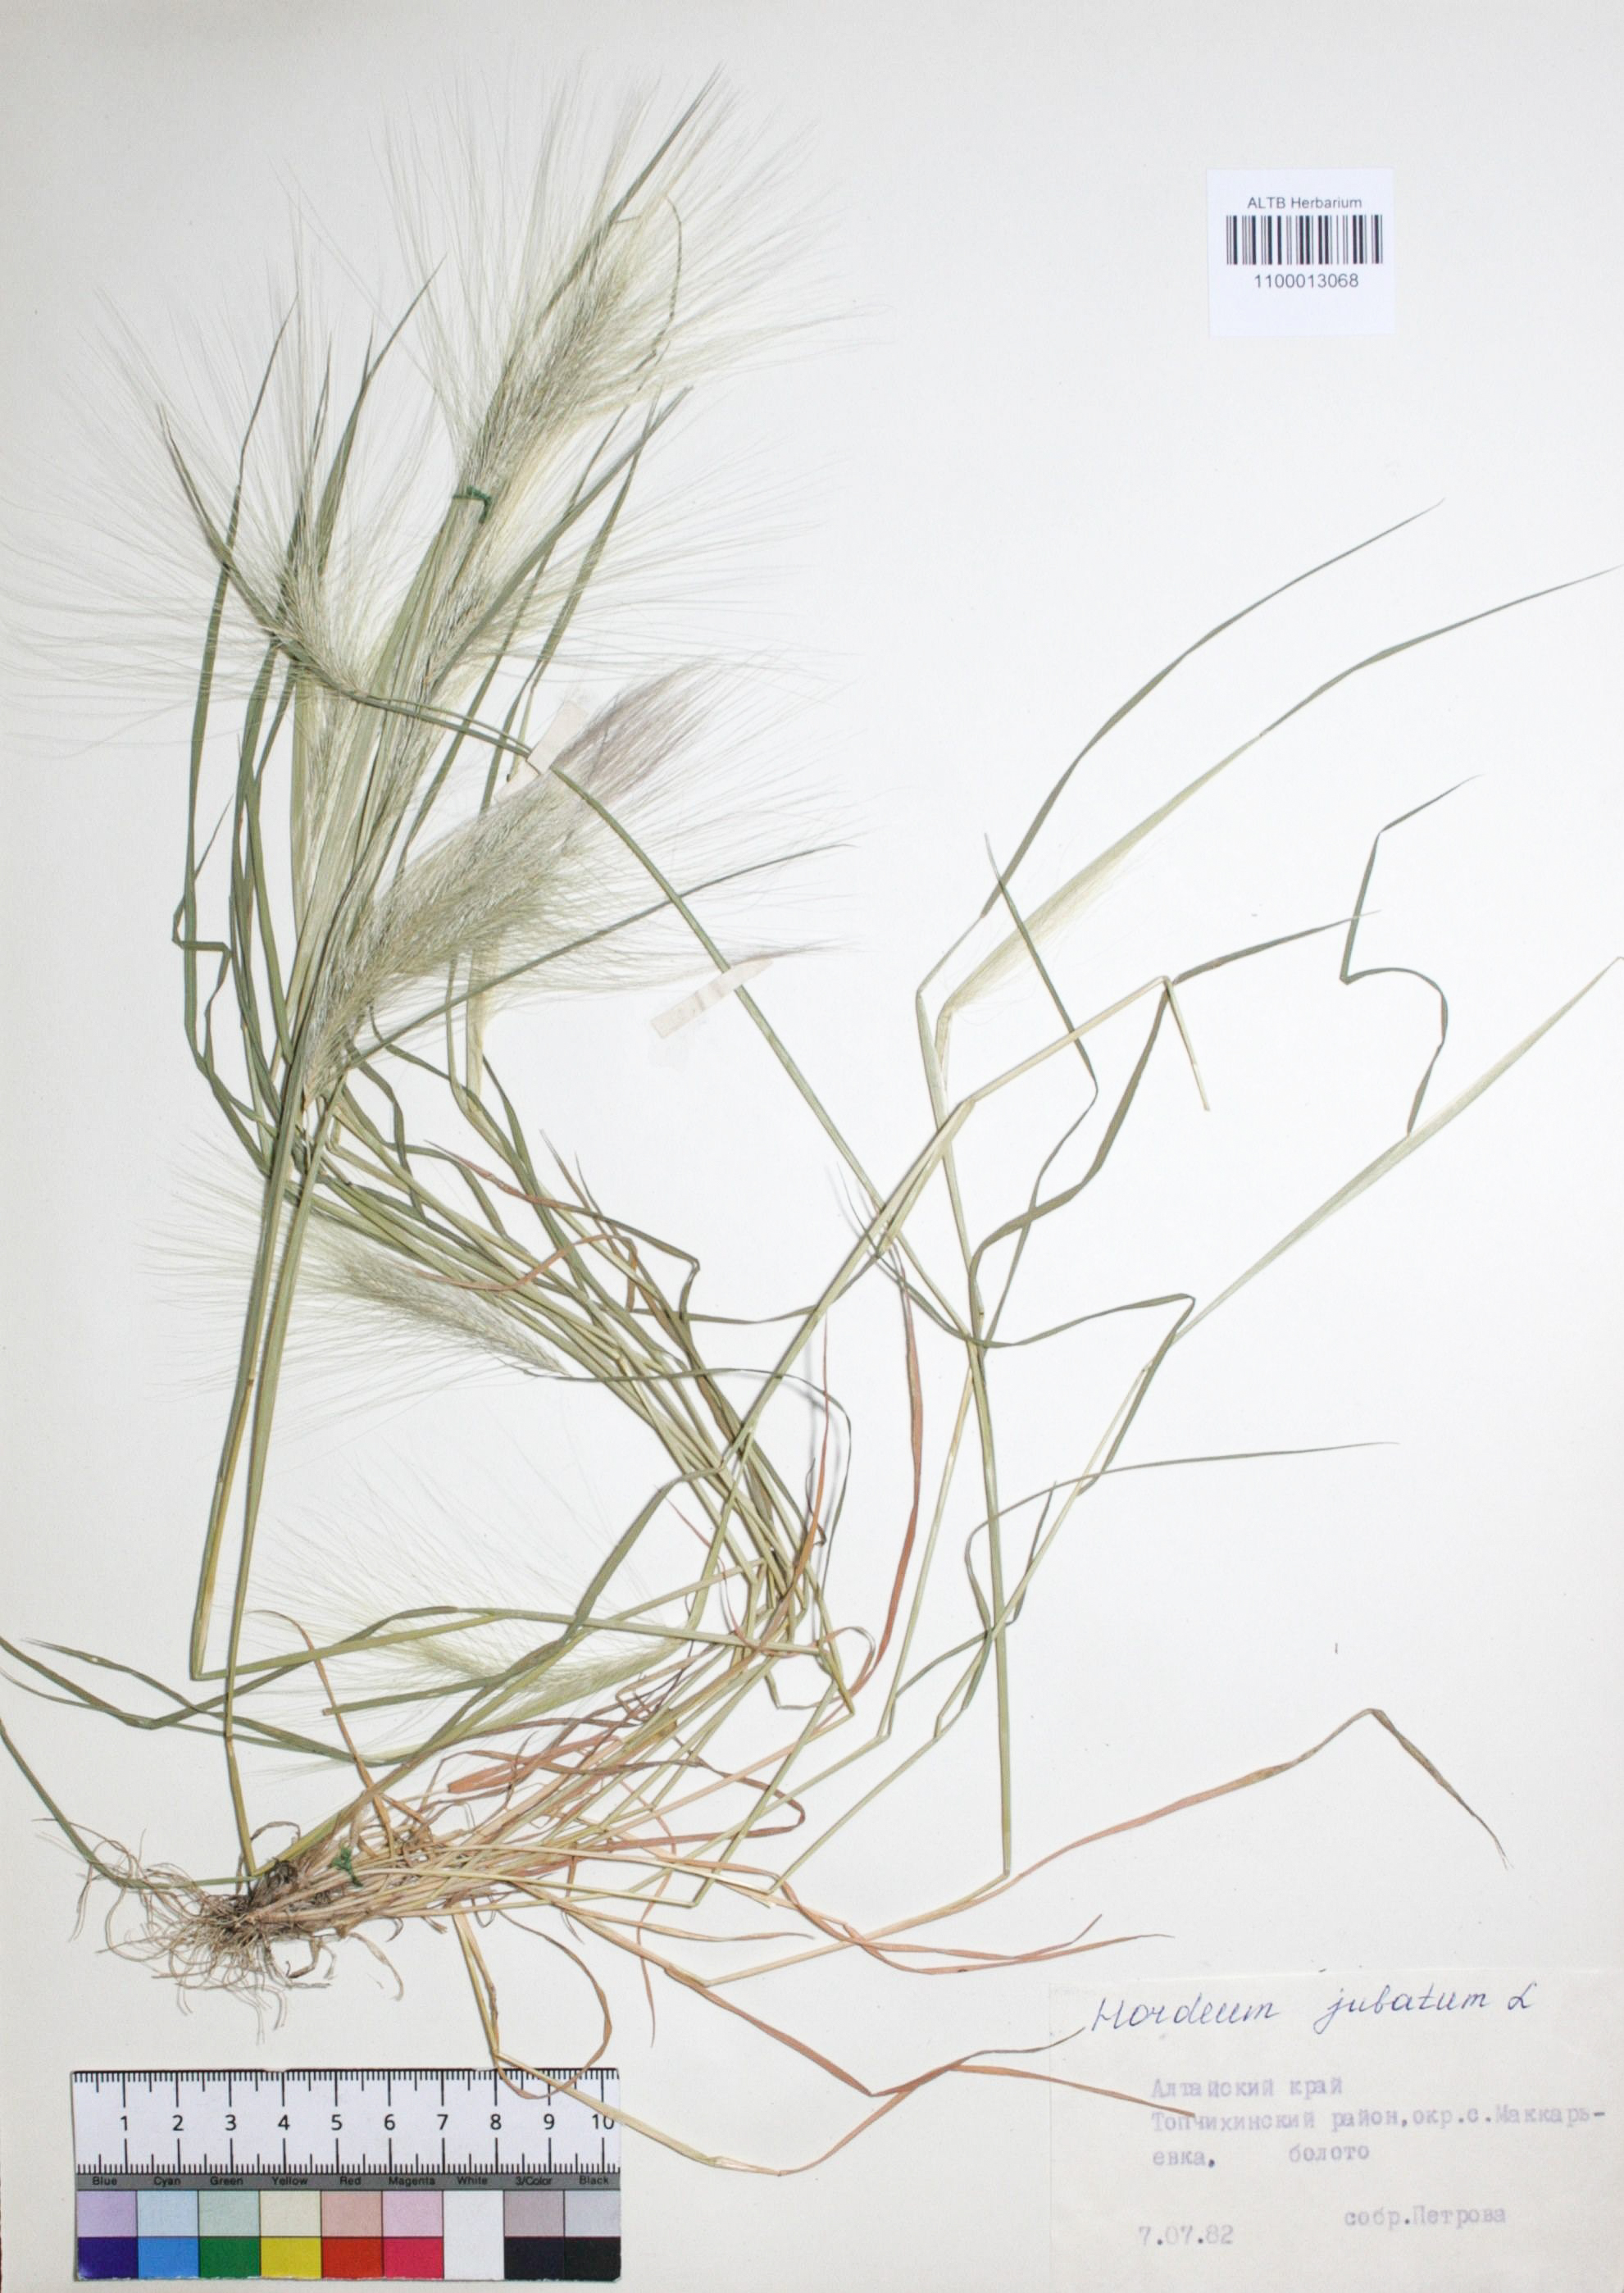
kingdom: Plantae
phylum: Tracheophyta
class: Liliopsida
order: Poales
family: Poaceae
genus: Hordeum
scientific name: Hordeum jubatum
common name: Foxtail barley
